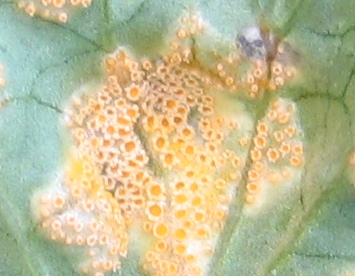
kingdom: Fungi
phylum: Basidiomycota
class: Pucciniomycetes
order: Pucciniales
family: Pucciniaceae
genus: Uromyces
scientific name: Uromyces dactylidis
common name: ranunkel-encellerust
